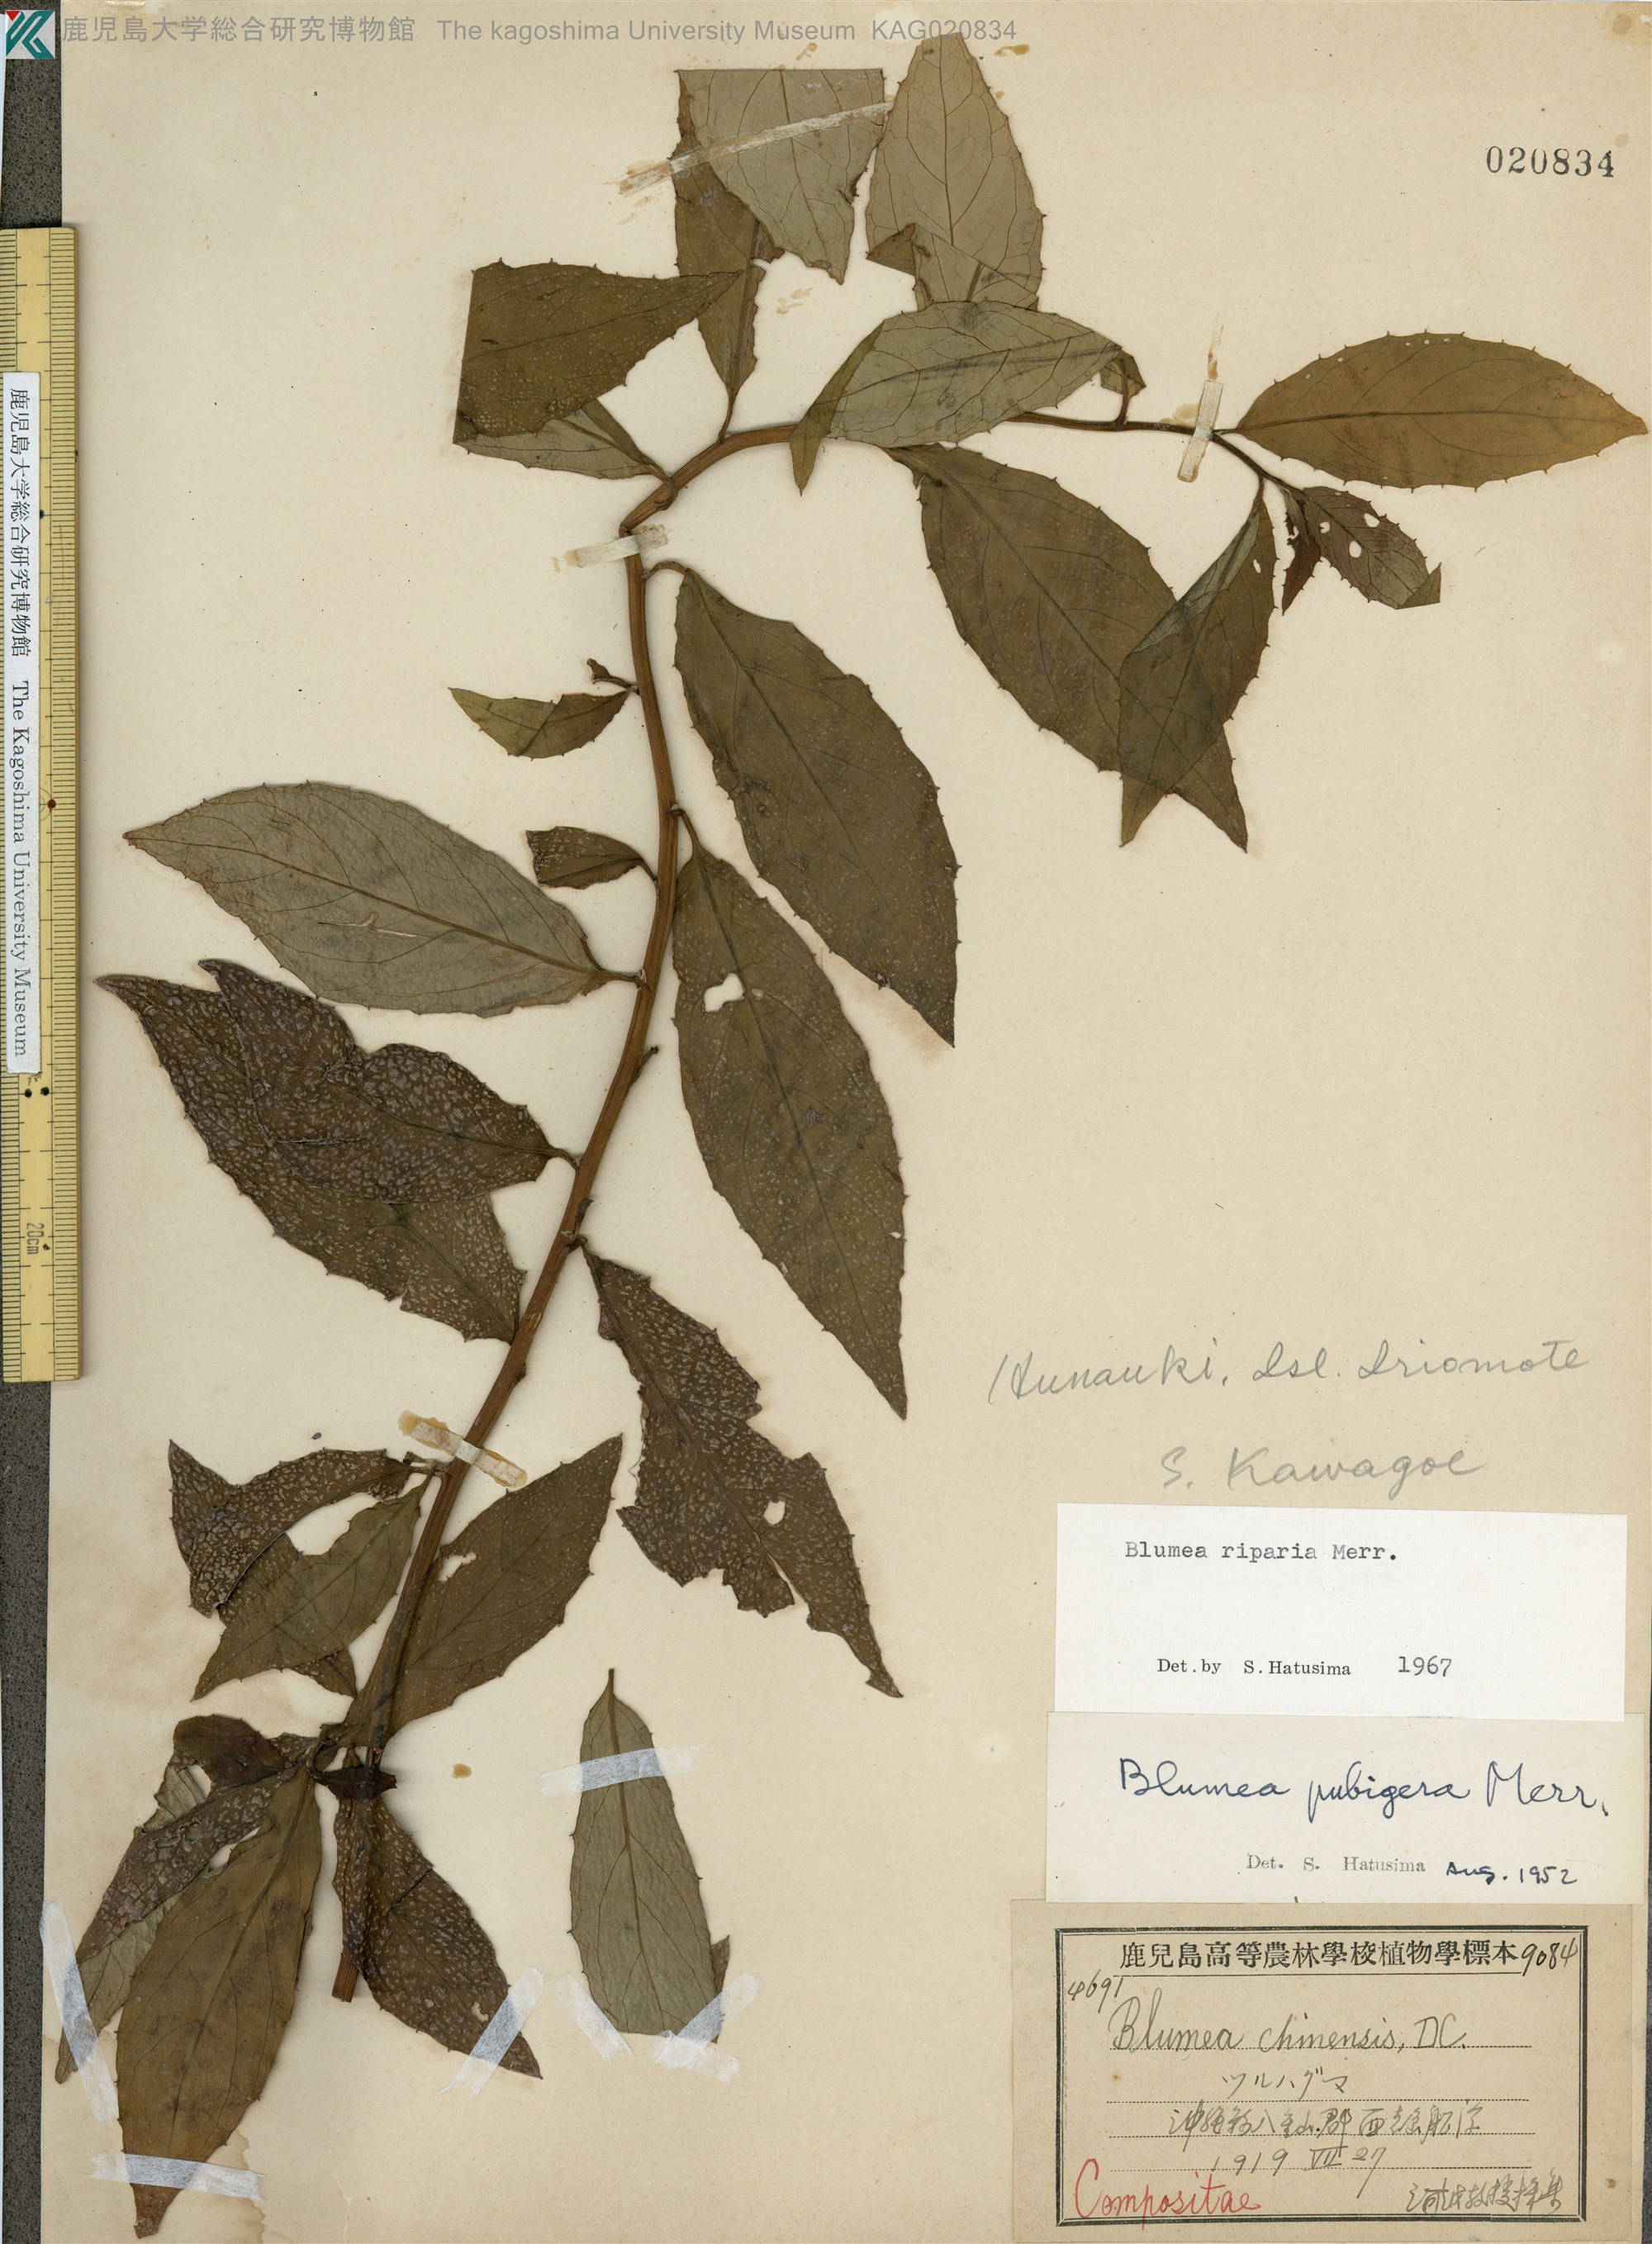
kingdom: Plantae
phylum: Tracheophyta
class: Magnoliopsida
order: Asterales
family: Asteraceae
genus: Blumea
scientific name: Blumea megacephala
